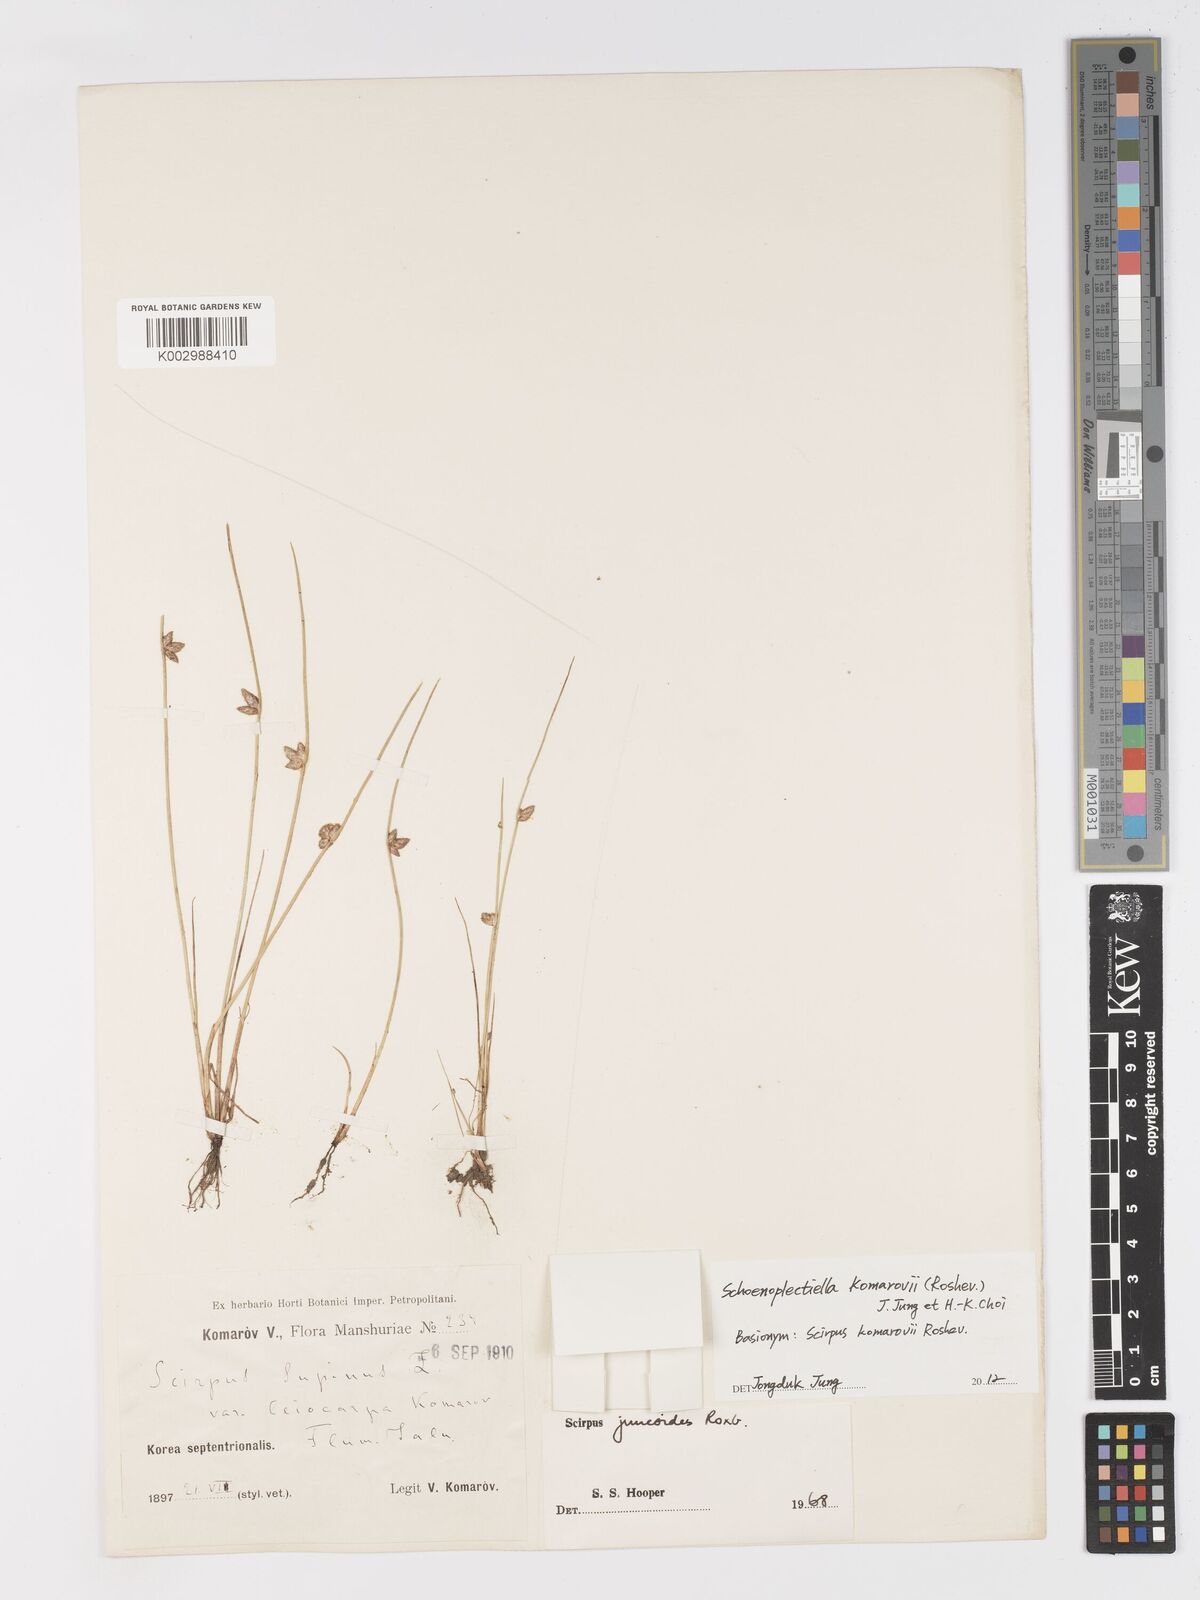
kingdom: Plantae
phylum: Tracheophyta
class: Liliopsida
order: Poales
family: Cyperaceae
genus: Schoenoplectiella
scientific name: Schoenoplectiella komarovii
